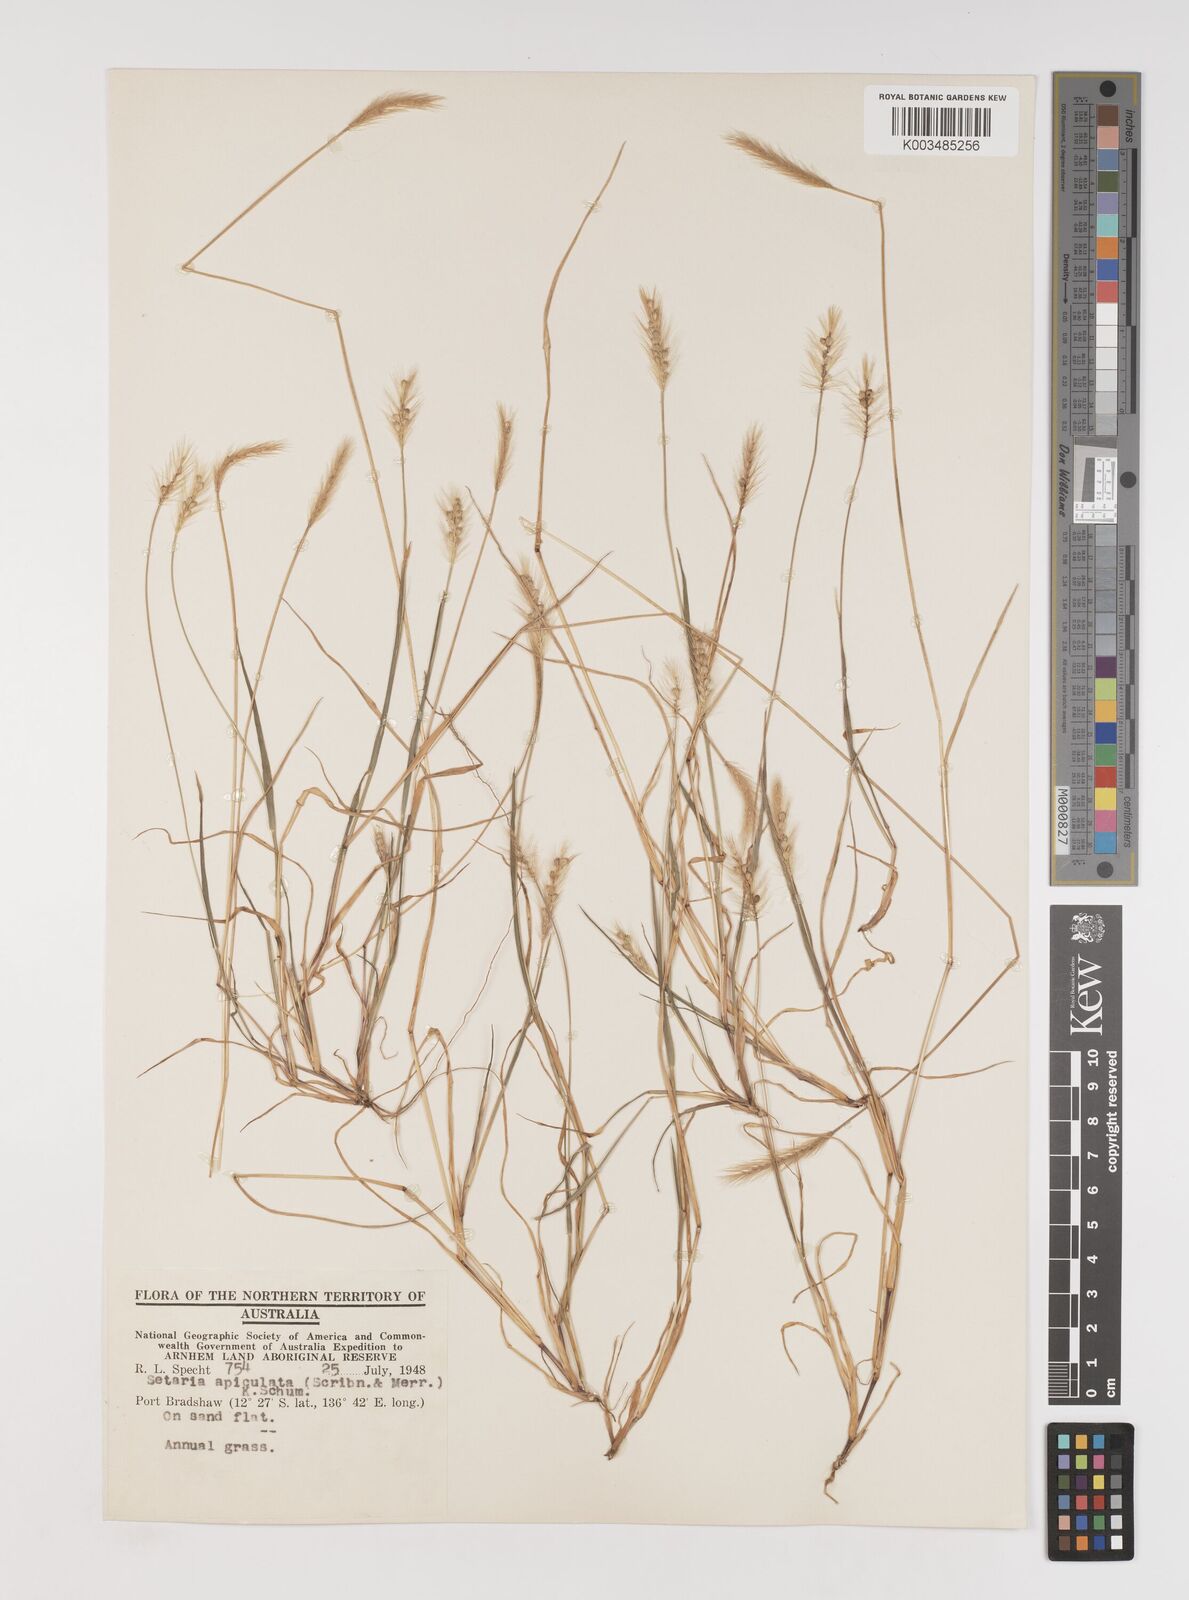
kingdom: Plantae
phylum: Tracheophyta
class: Liliopsida
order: Poales
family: Poaceae
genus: Setaria
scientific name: Setaria apiculata
